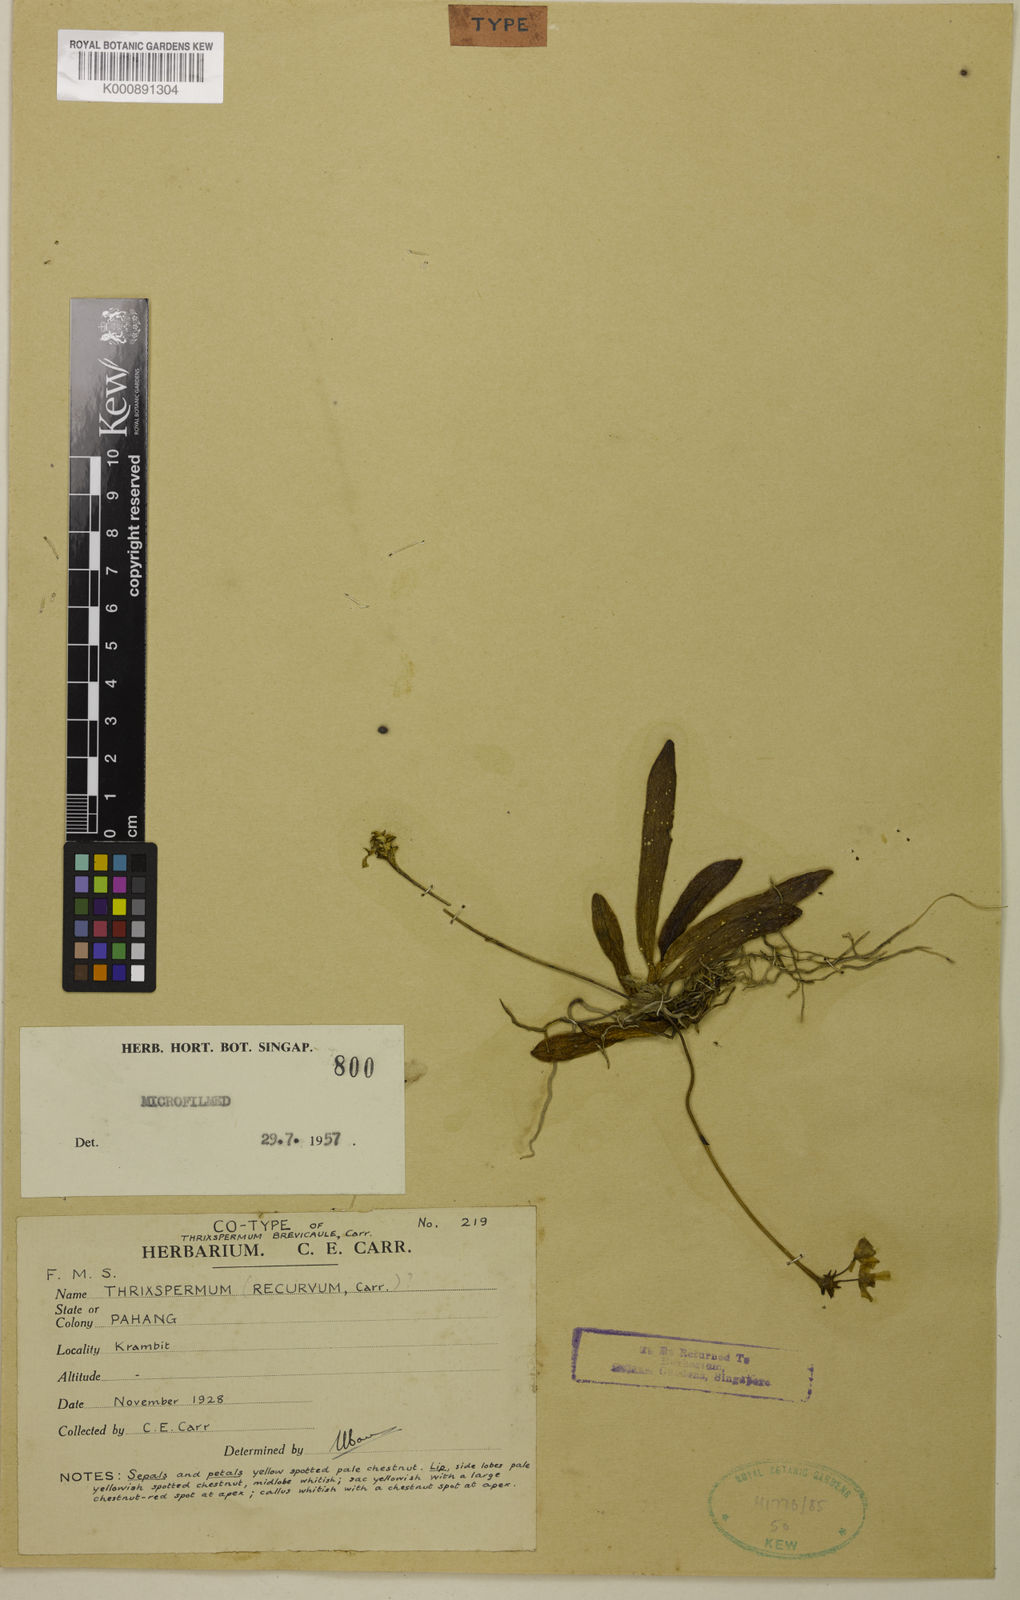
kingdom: Plantae
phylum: Tracheophyta
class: Liliopsida
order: Asparagales
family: Orchidaceae
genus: Thrixspermum
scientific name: Thrixspermum
